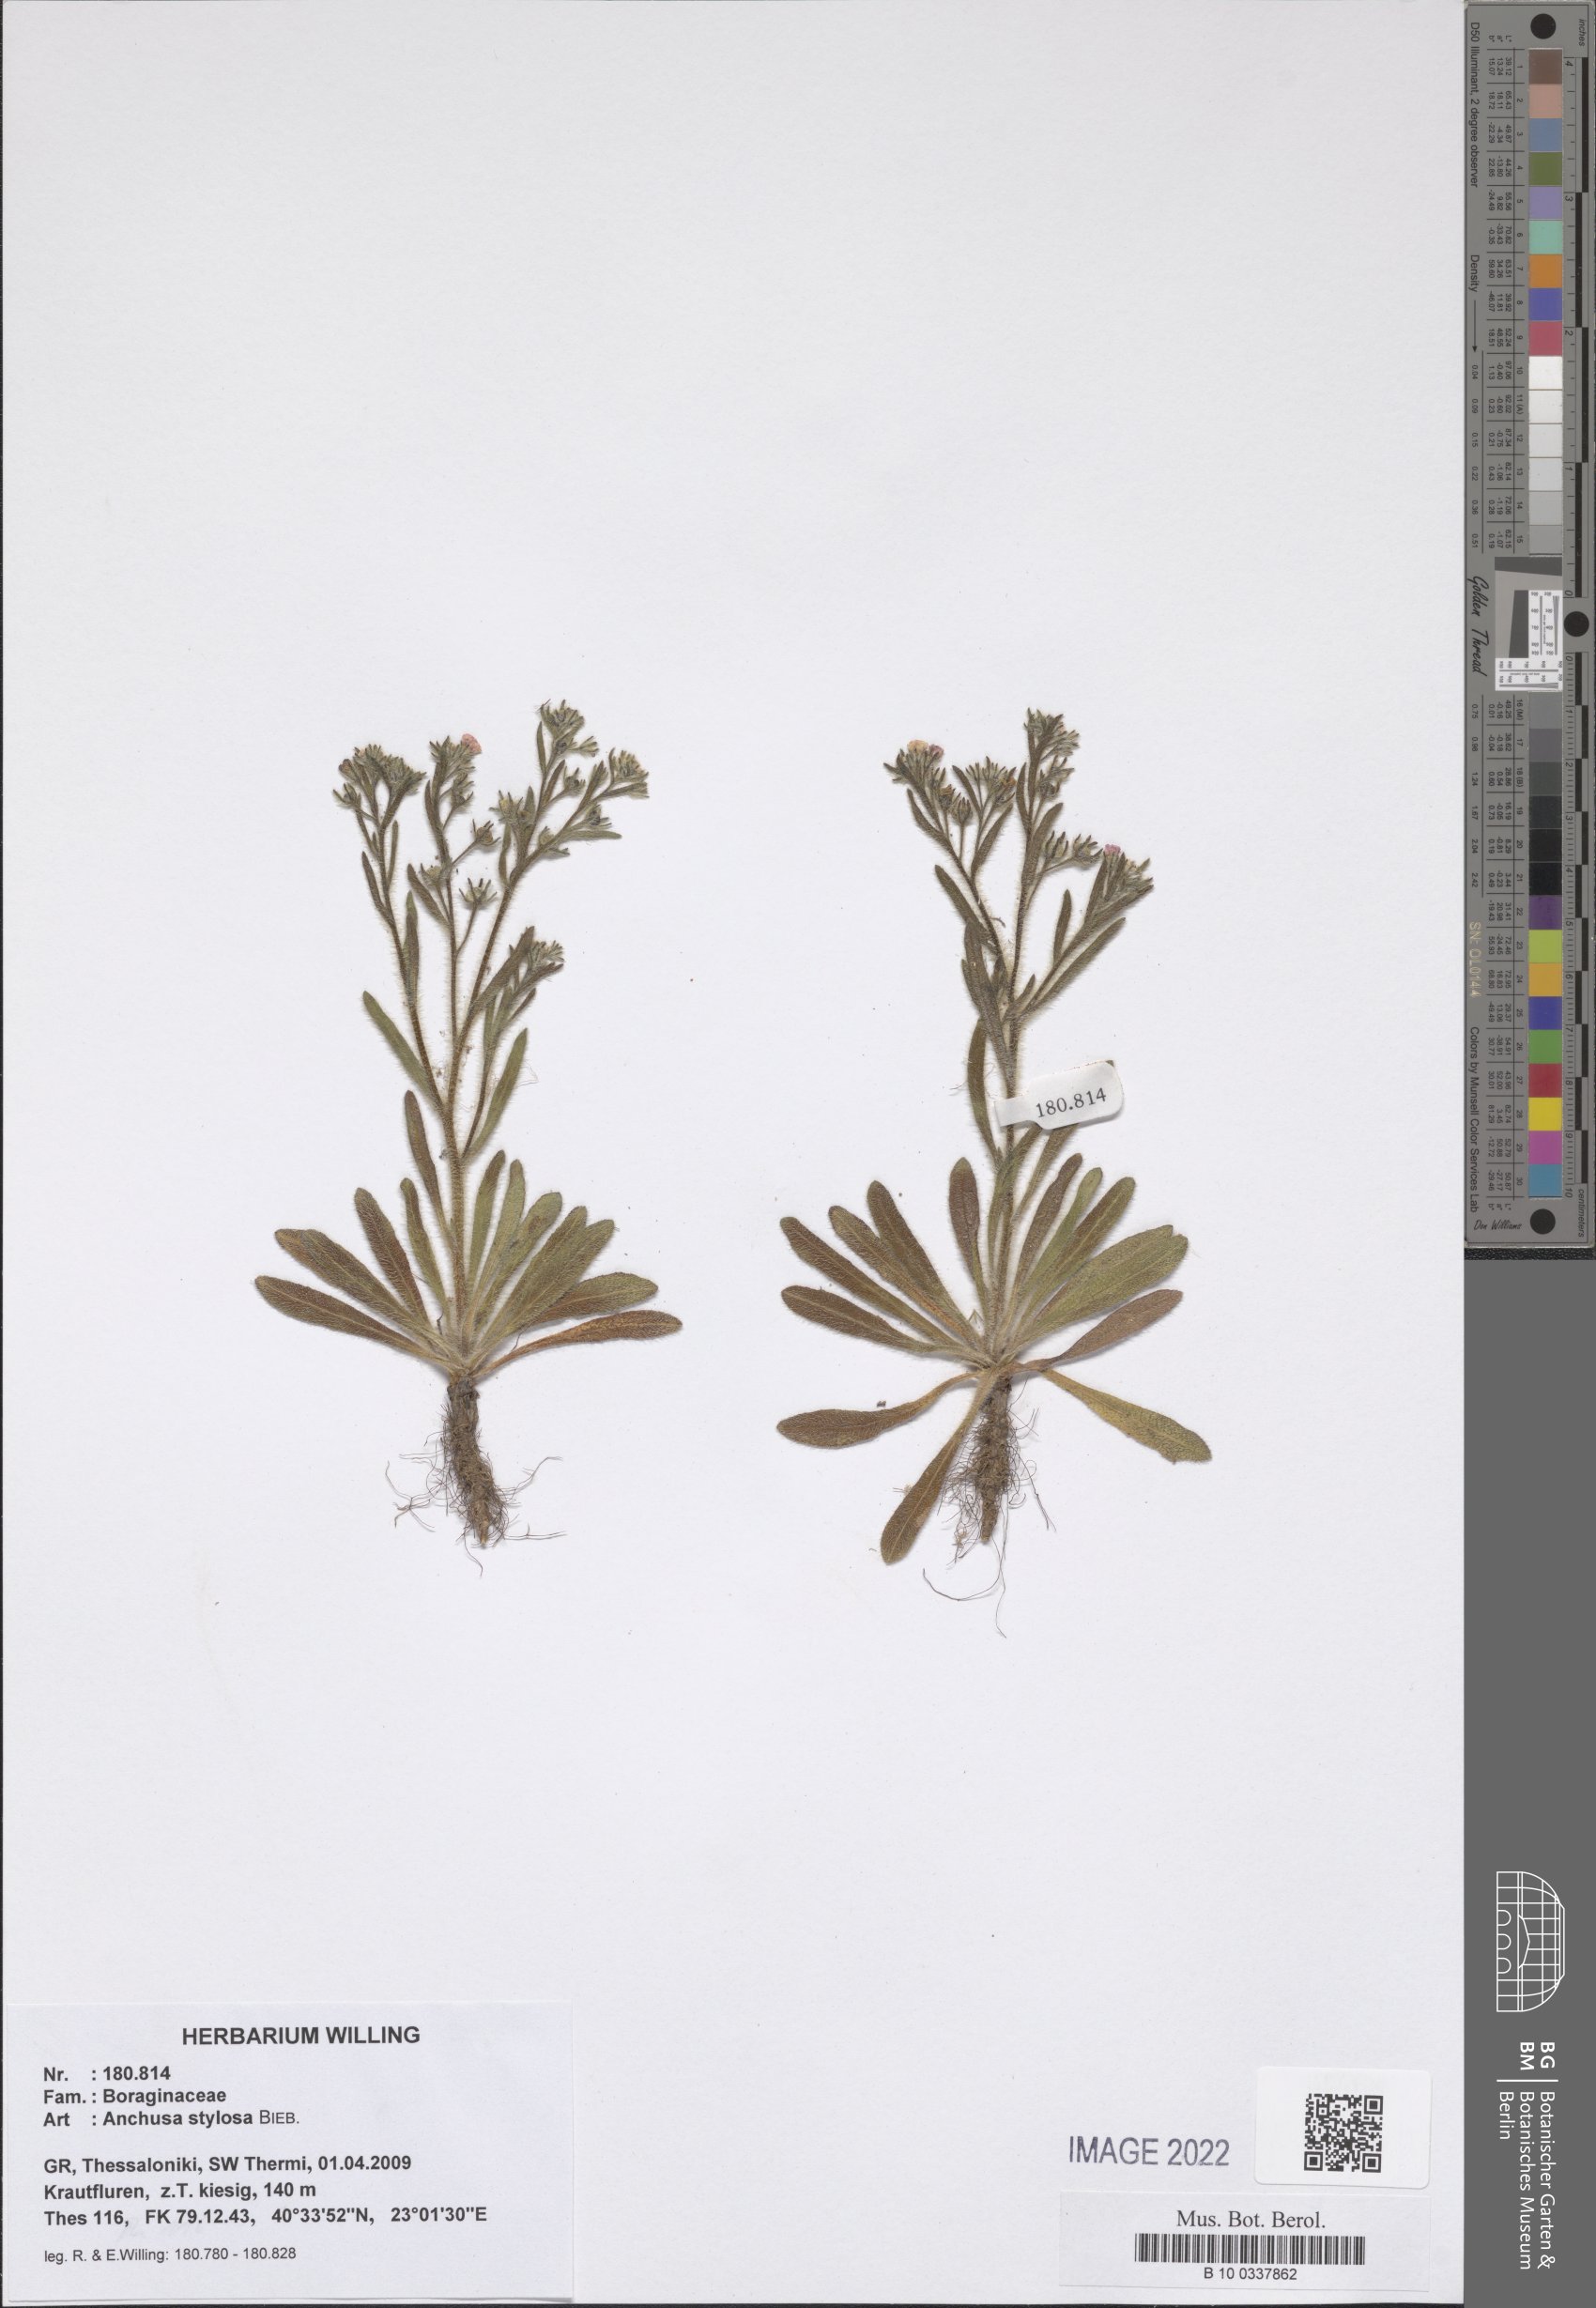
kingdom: Plantae
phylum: Tracheophyta
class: Magnoliopsida
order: Boraginales
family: Boraginaceae
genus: Anchusa
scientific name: Anchusa stylosa
